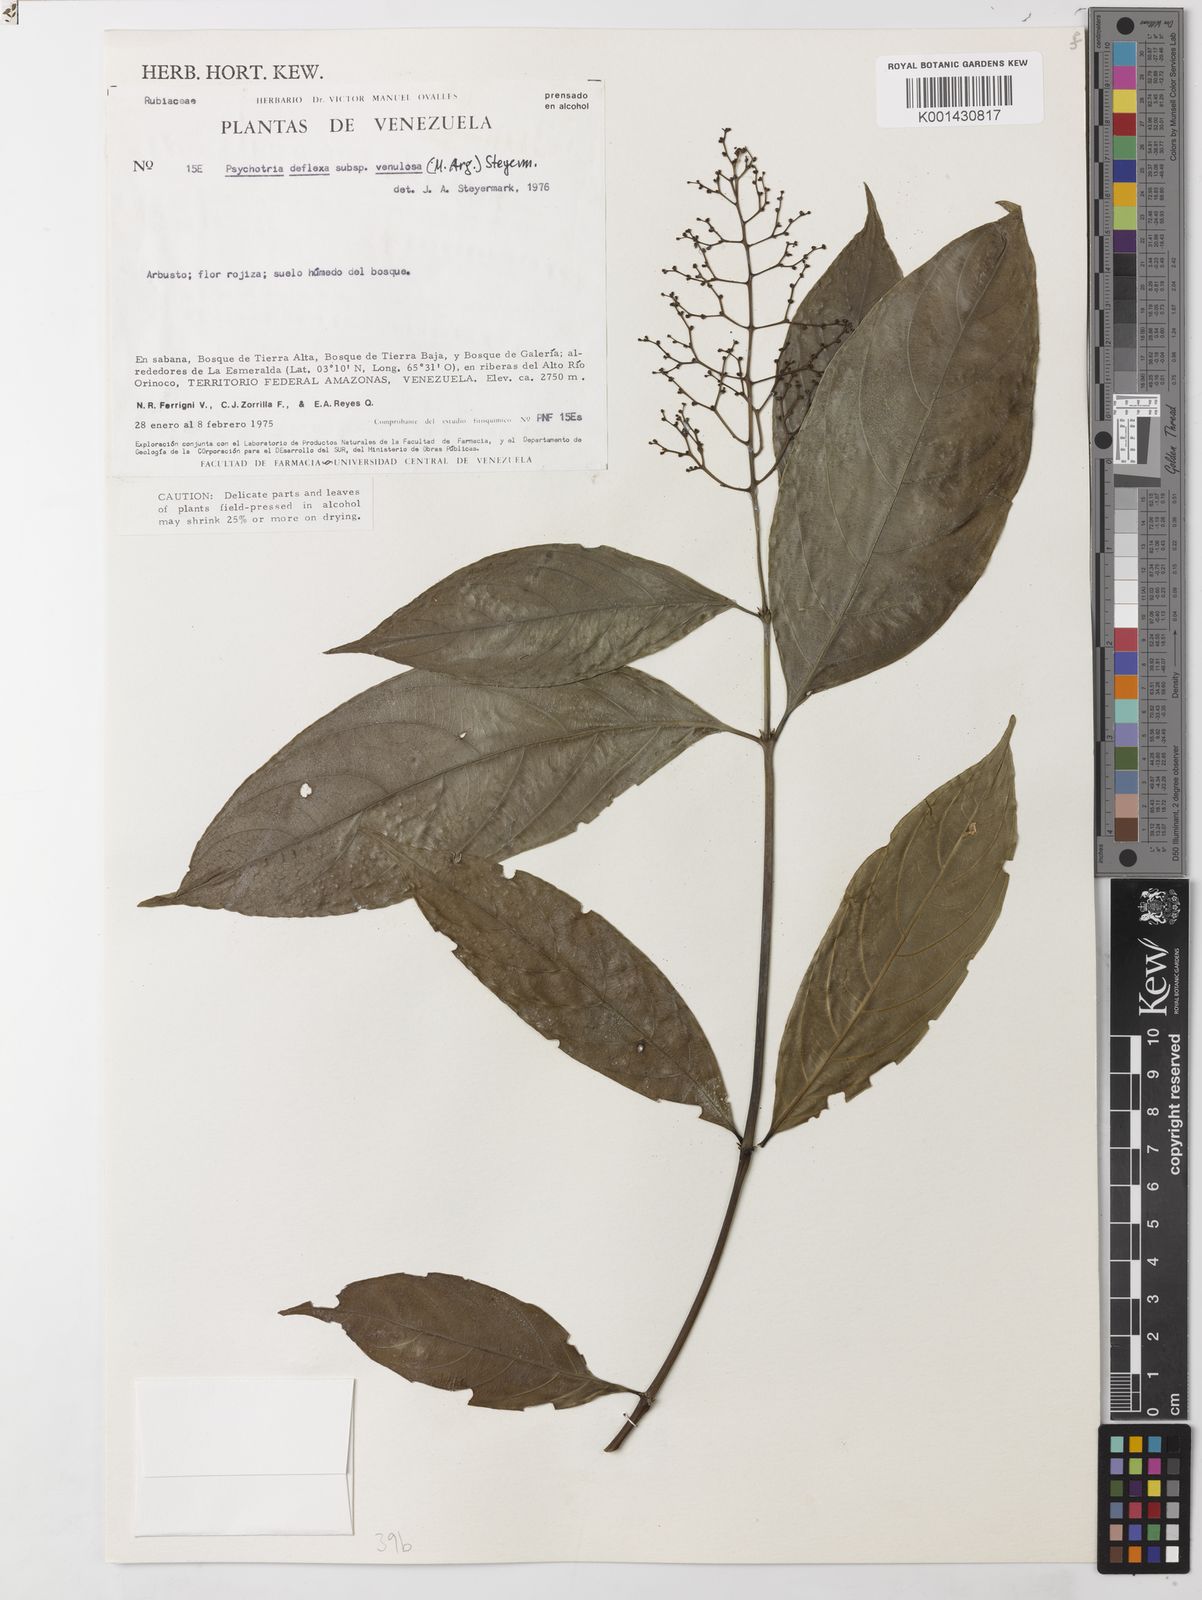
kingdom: Plantae
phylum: Tracheophyta
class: Magnoliopsida
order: Gentianales
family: Rubiaceae
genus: Psychotria
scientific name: Psychotria
